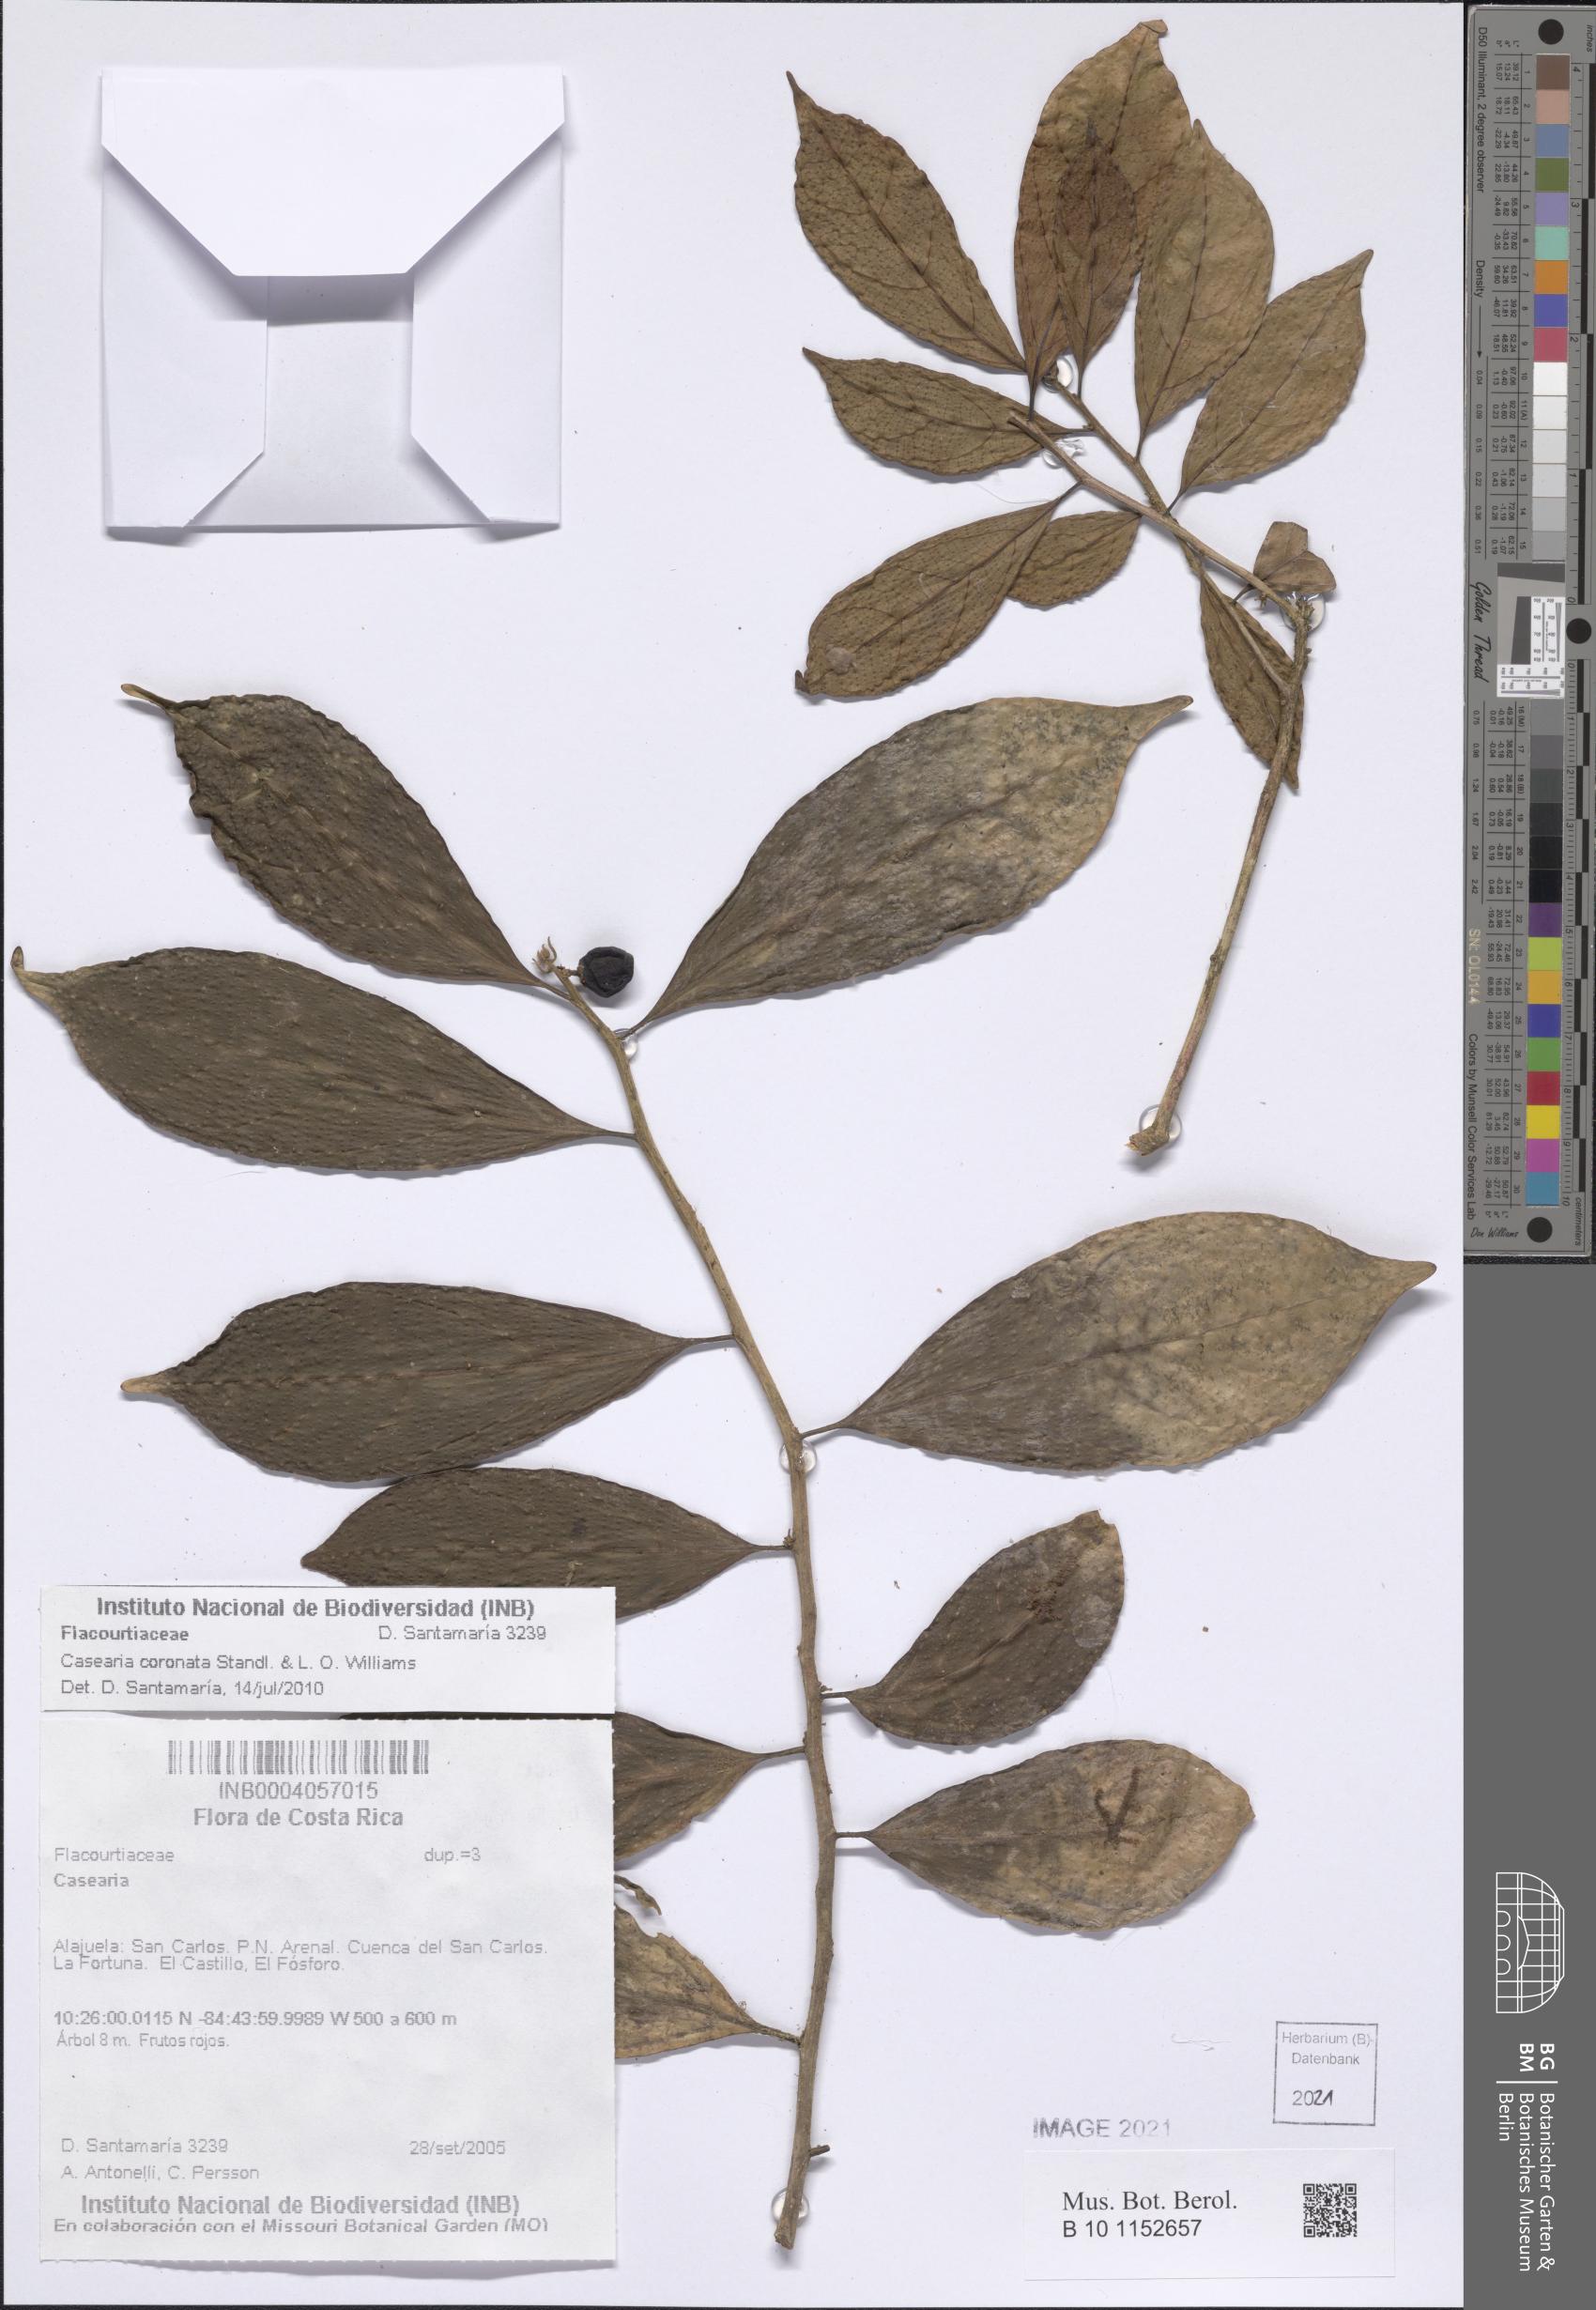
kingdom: Plantae
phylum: Tracheophyta
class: Magnoliopsida
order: Malpighiales
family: Salicaceae
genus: Casearia
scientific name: Casearia coronata
